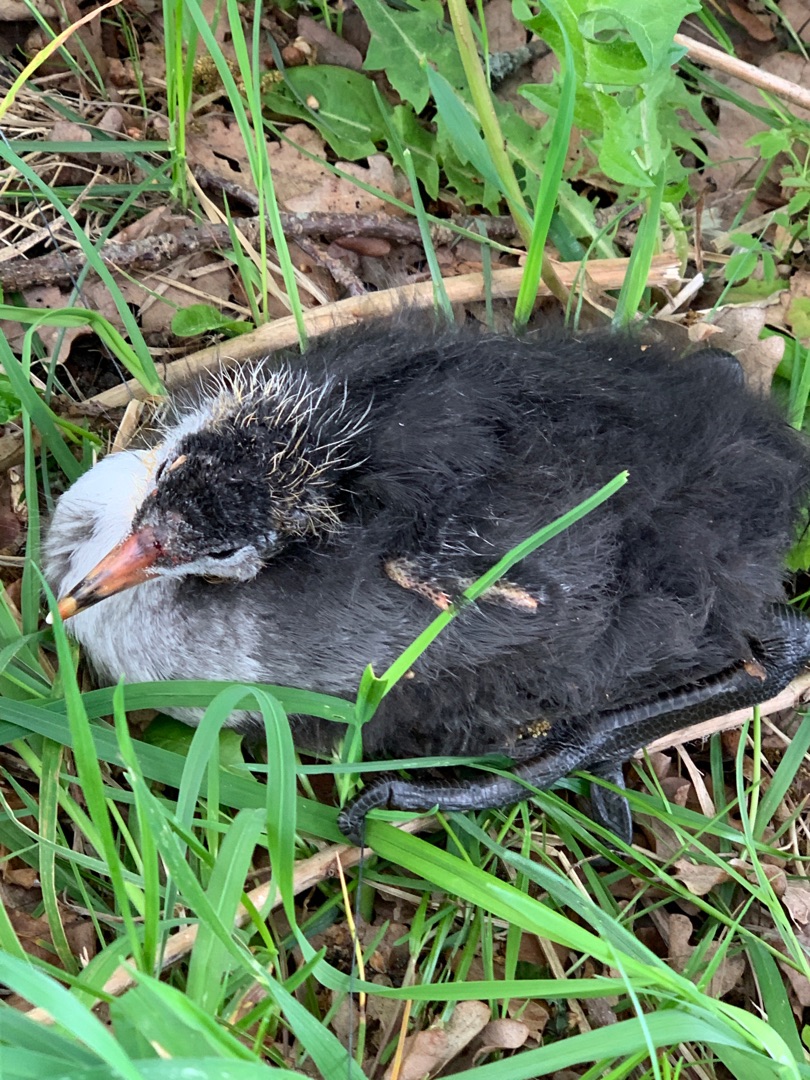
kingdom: Animalia
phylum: Chordata
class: Aves
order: Gruiformes
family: Rallidae
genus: Fulica
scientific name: Fulica atra
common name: Blishøne
